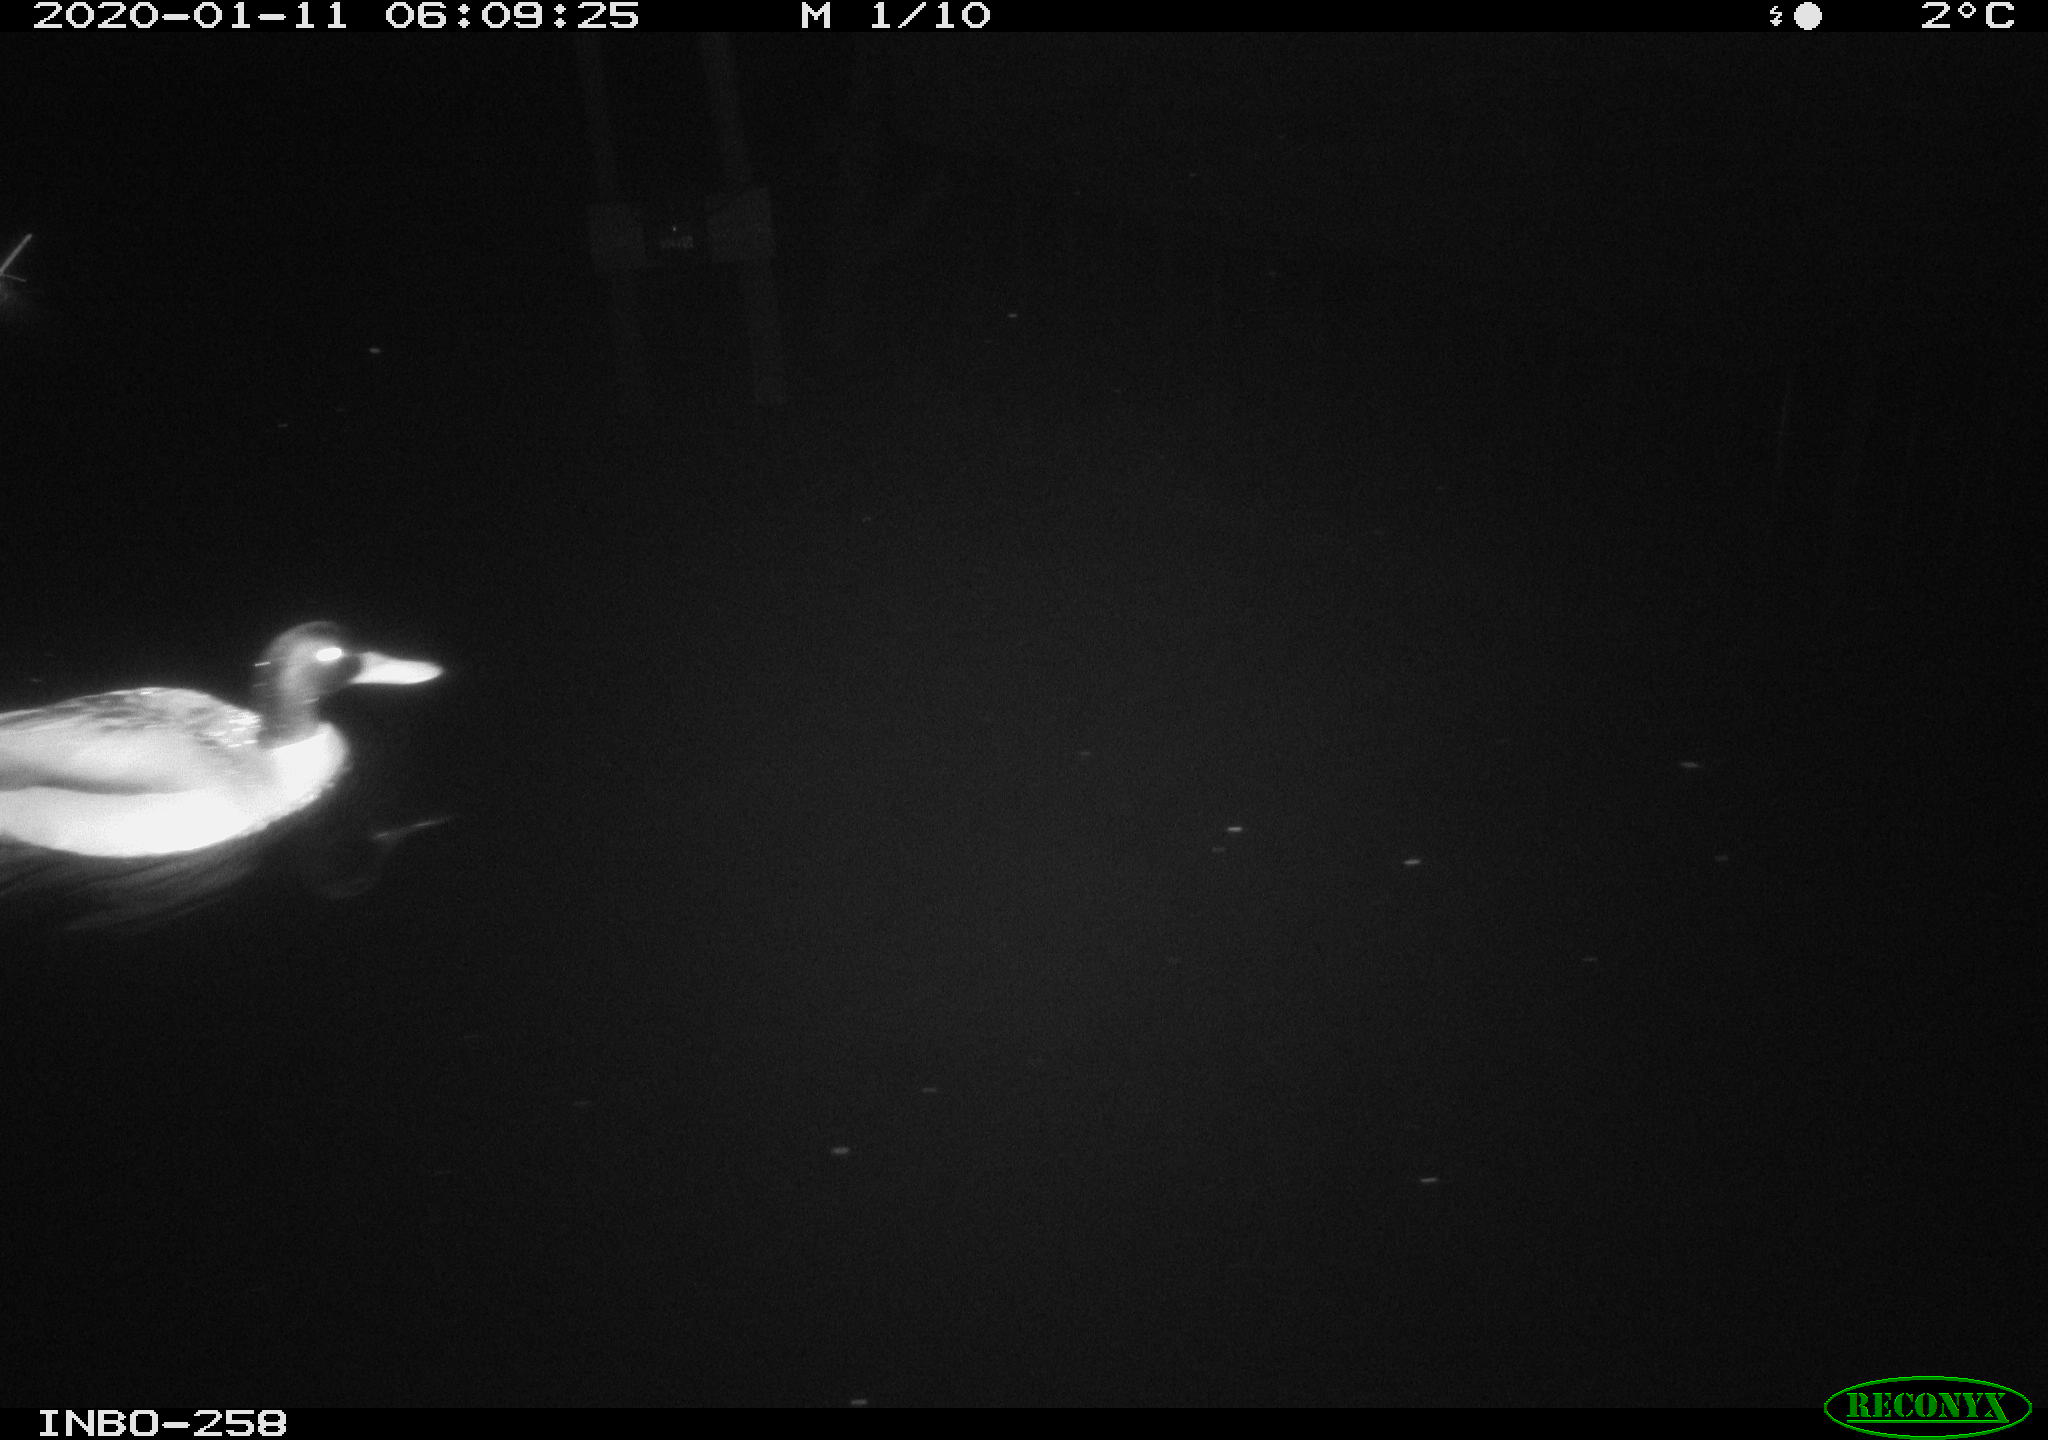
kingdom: Animalia
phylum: Chordata
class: Aves
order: Anseriformes
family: Anatidae
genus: Anas
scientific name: Anas platyrhynchos
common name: Mallard
